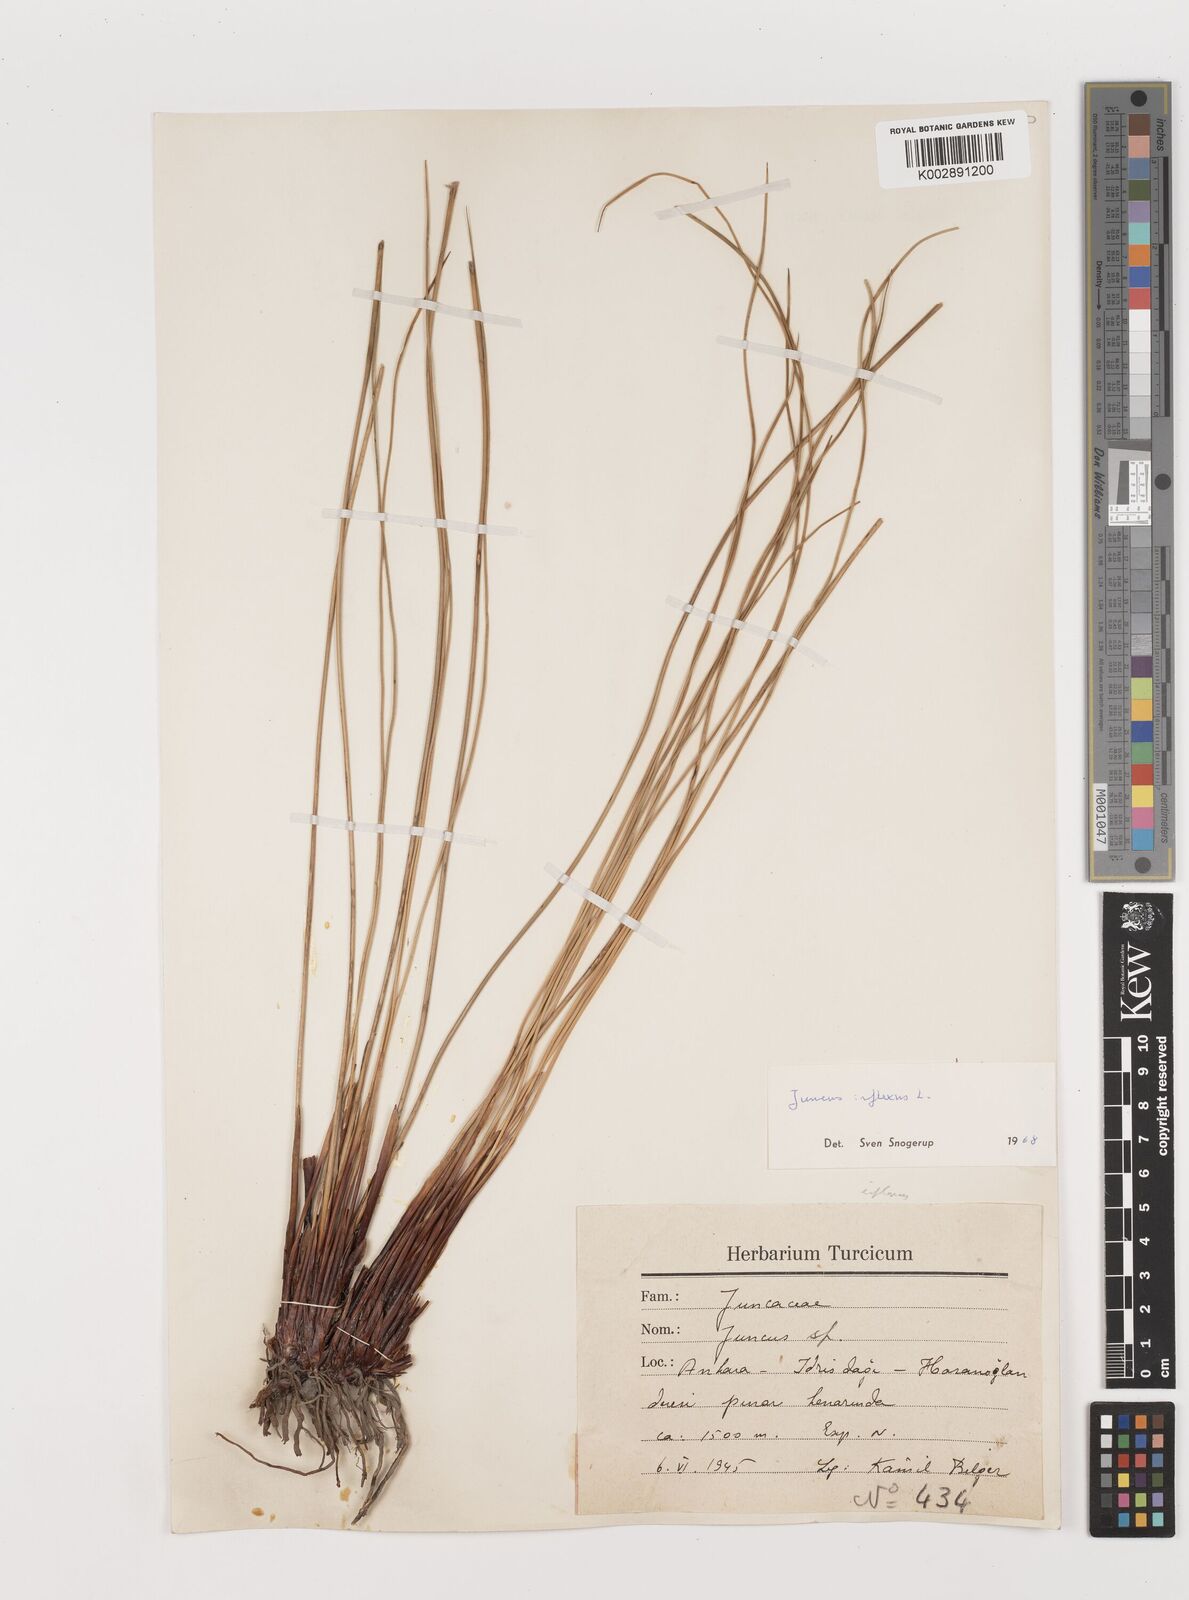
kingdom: Plantae
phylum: Tracheophyta
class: Liliopsida
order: Poales
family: Juncaceae
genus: Juncus
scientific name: Juncus inflexus
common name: Hard rush
